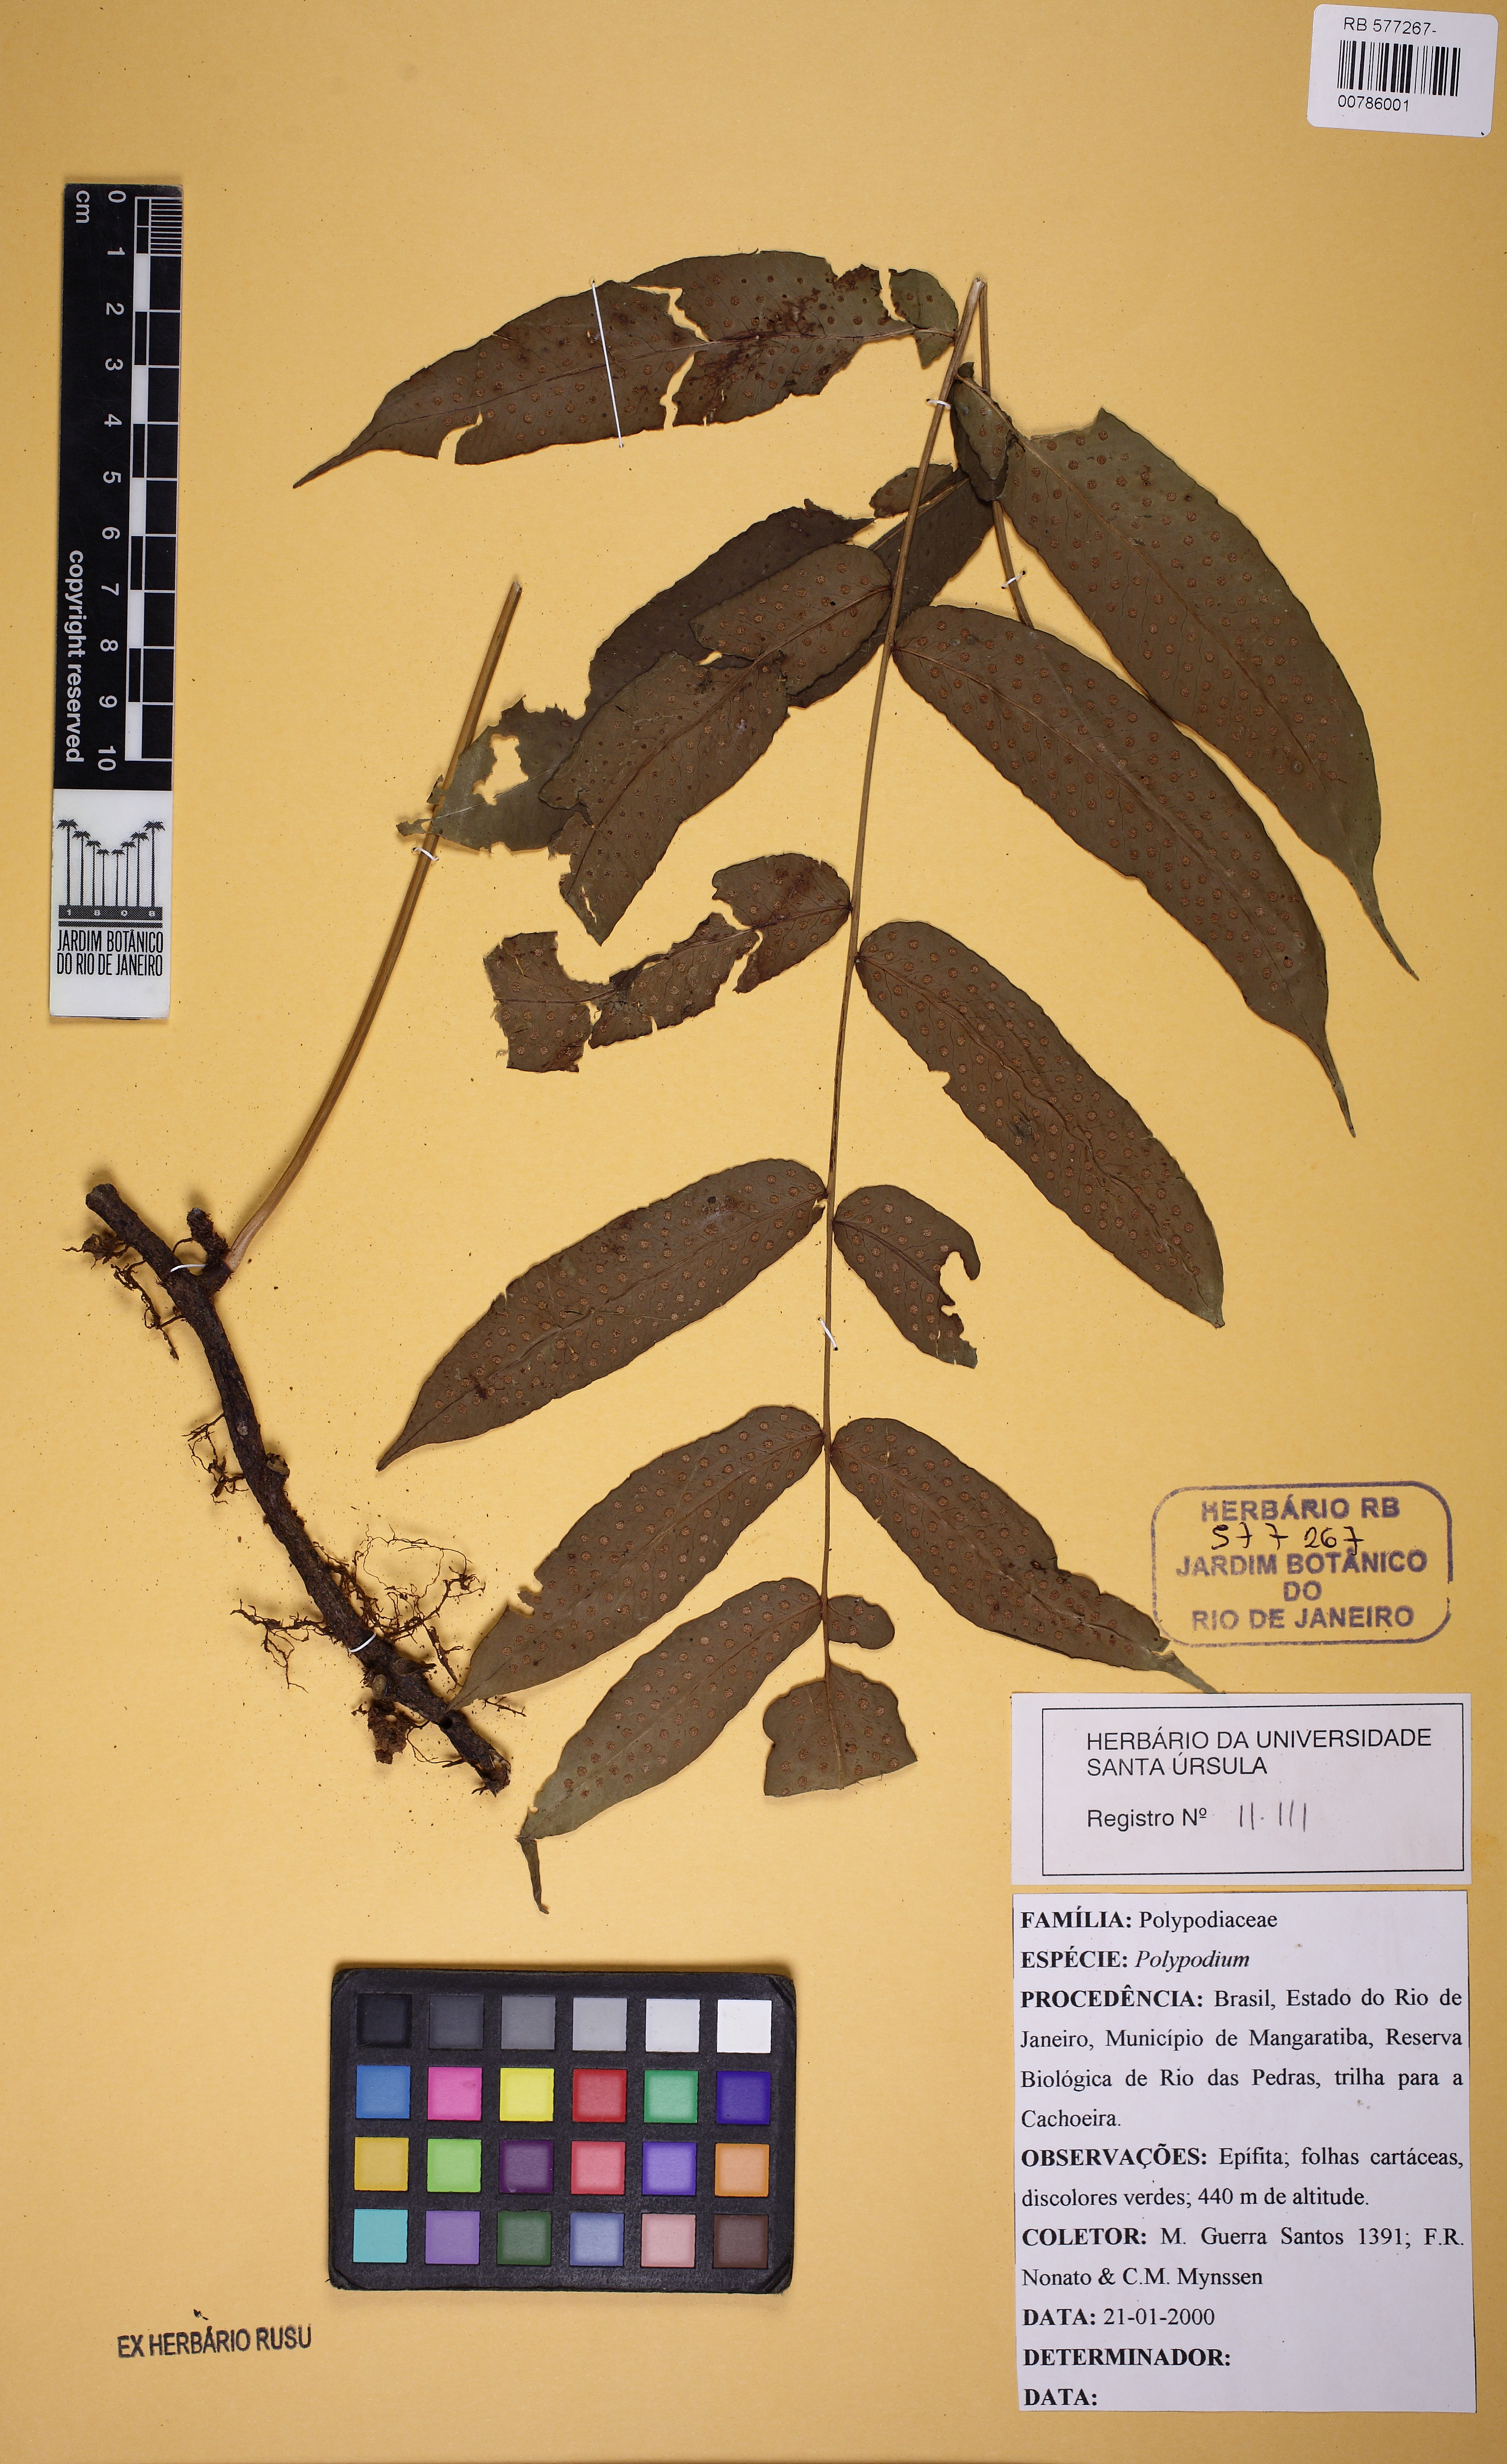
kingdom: Plantae
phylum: Tracheophyta
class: Polypodiopsida
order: Polypodiales
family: Polypodiaceae
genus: Serpocaulon
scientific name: Serpocaulon fraxinifolium
